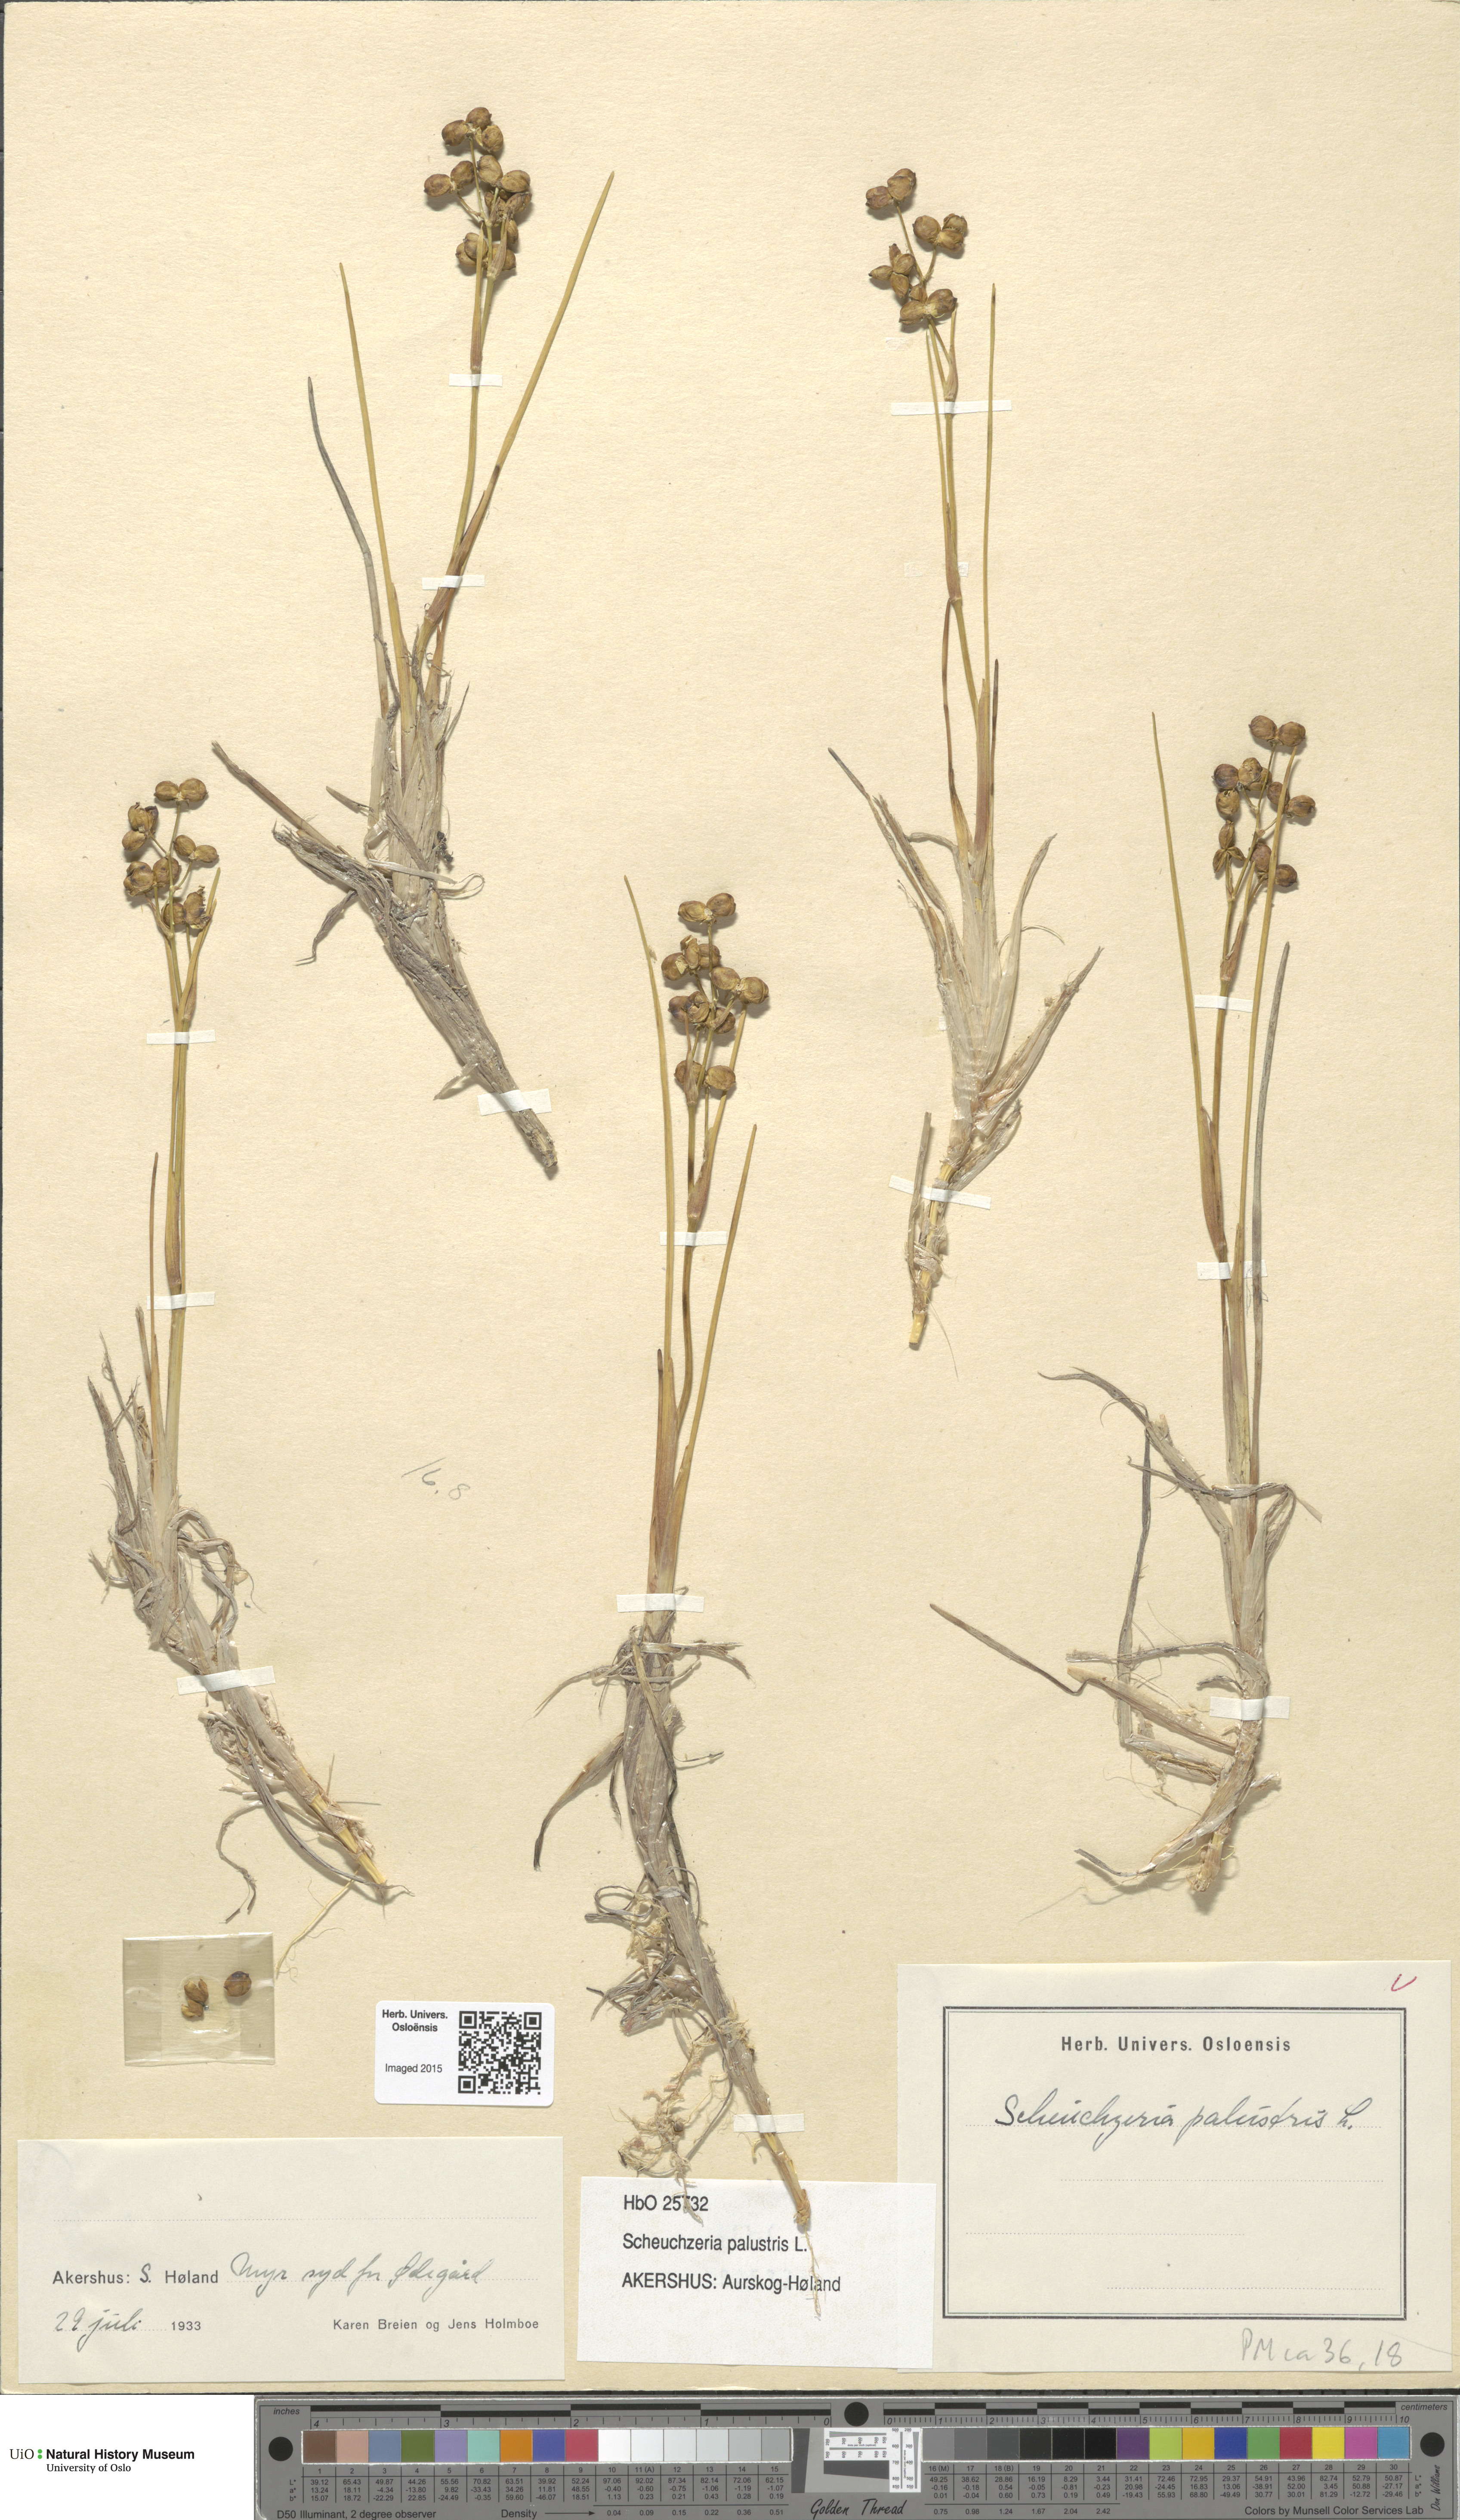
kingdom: Plantae
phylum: Tracheophyta
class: Liliopsida
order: Alismatales
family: Scheuchzeriaceae
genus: Scheuchzeria
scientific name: Scheuchzeria palustris
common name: Rannoch-rush
